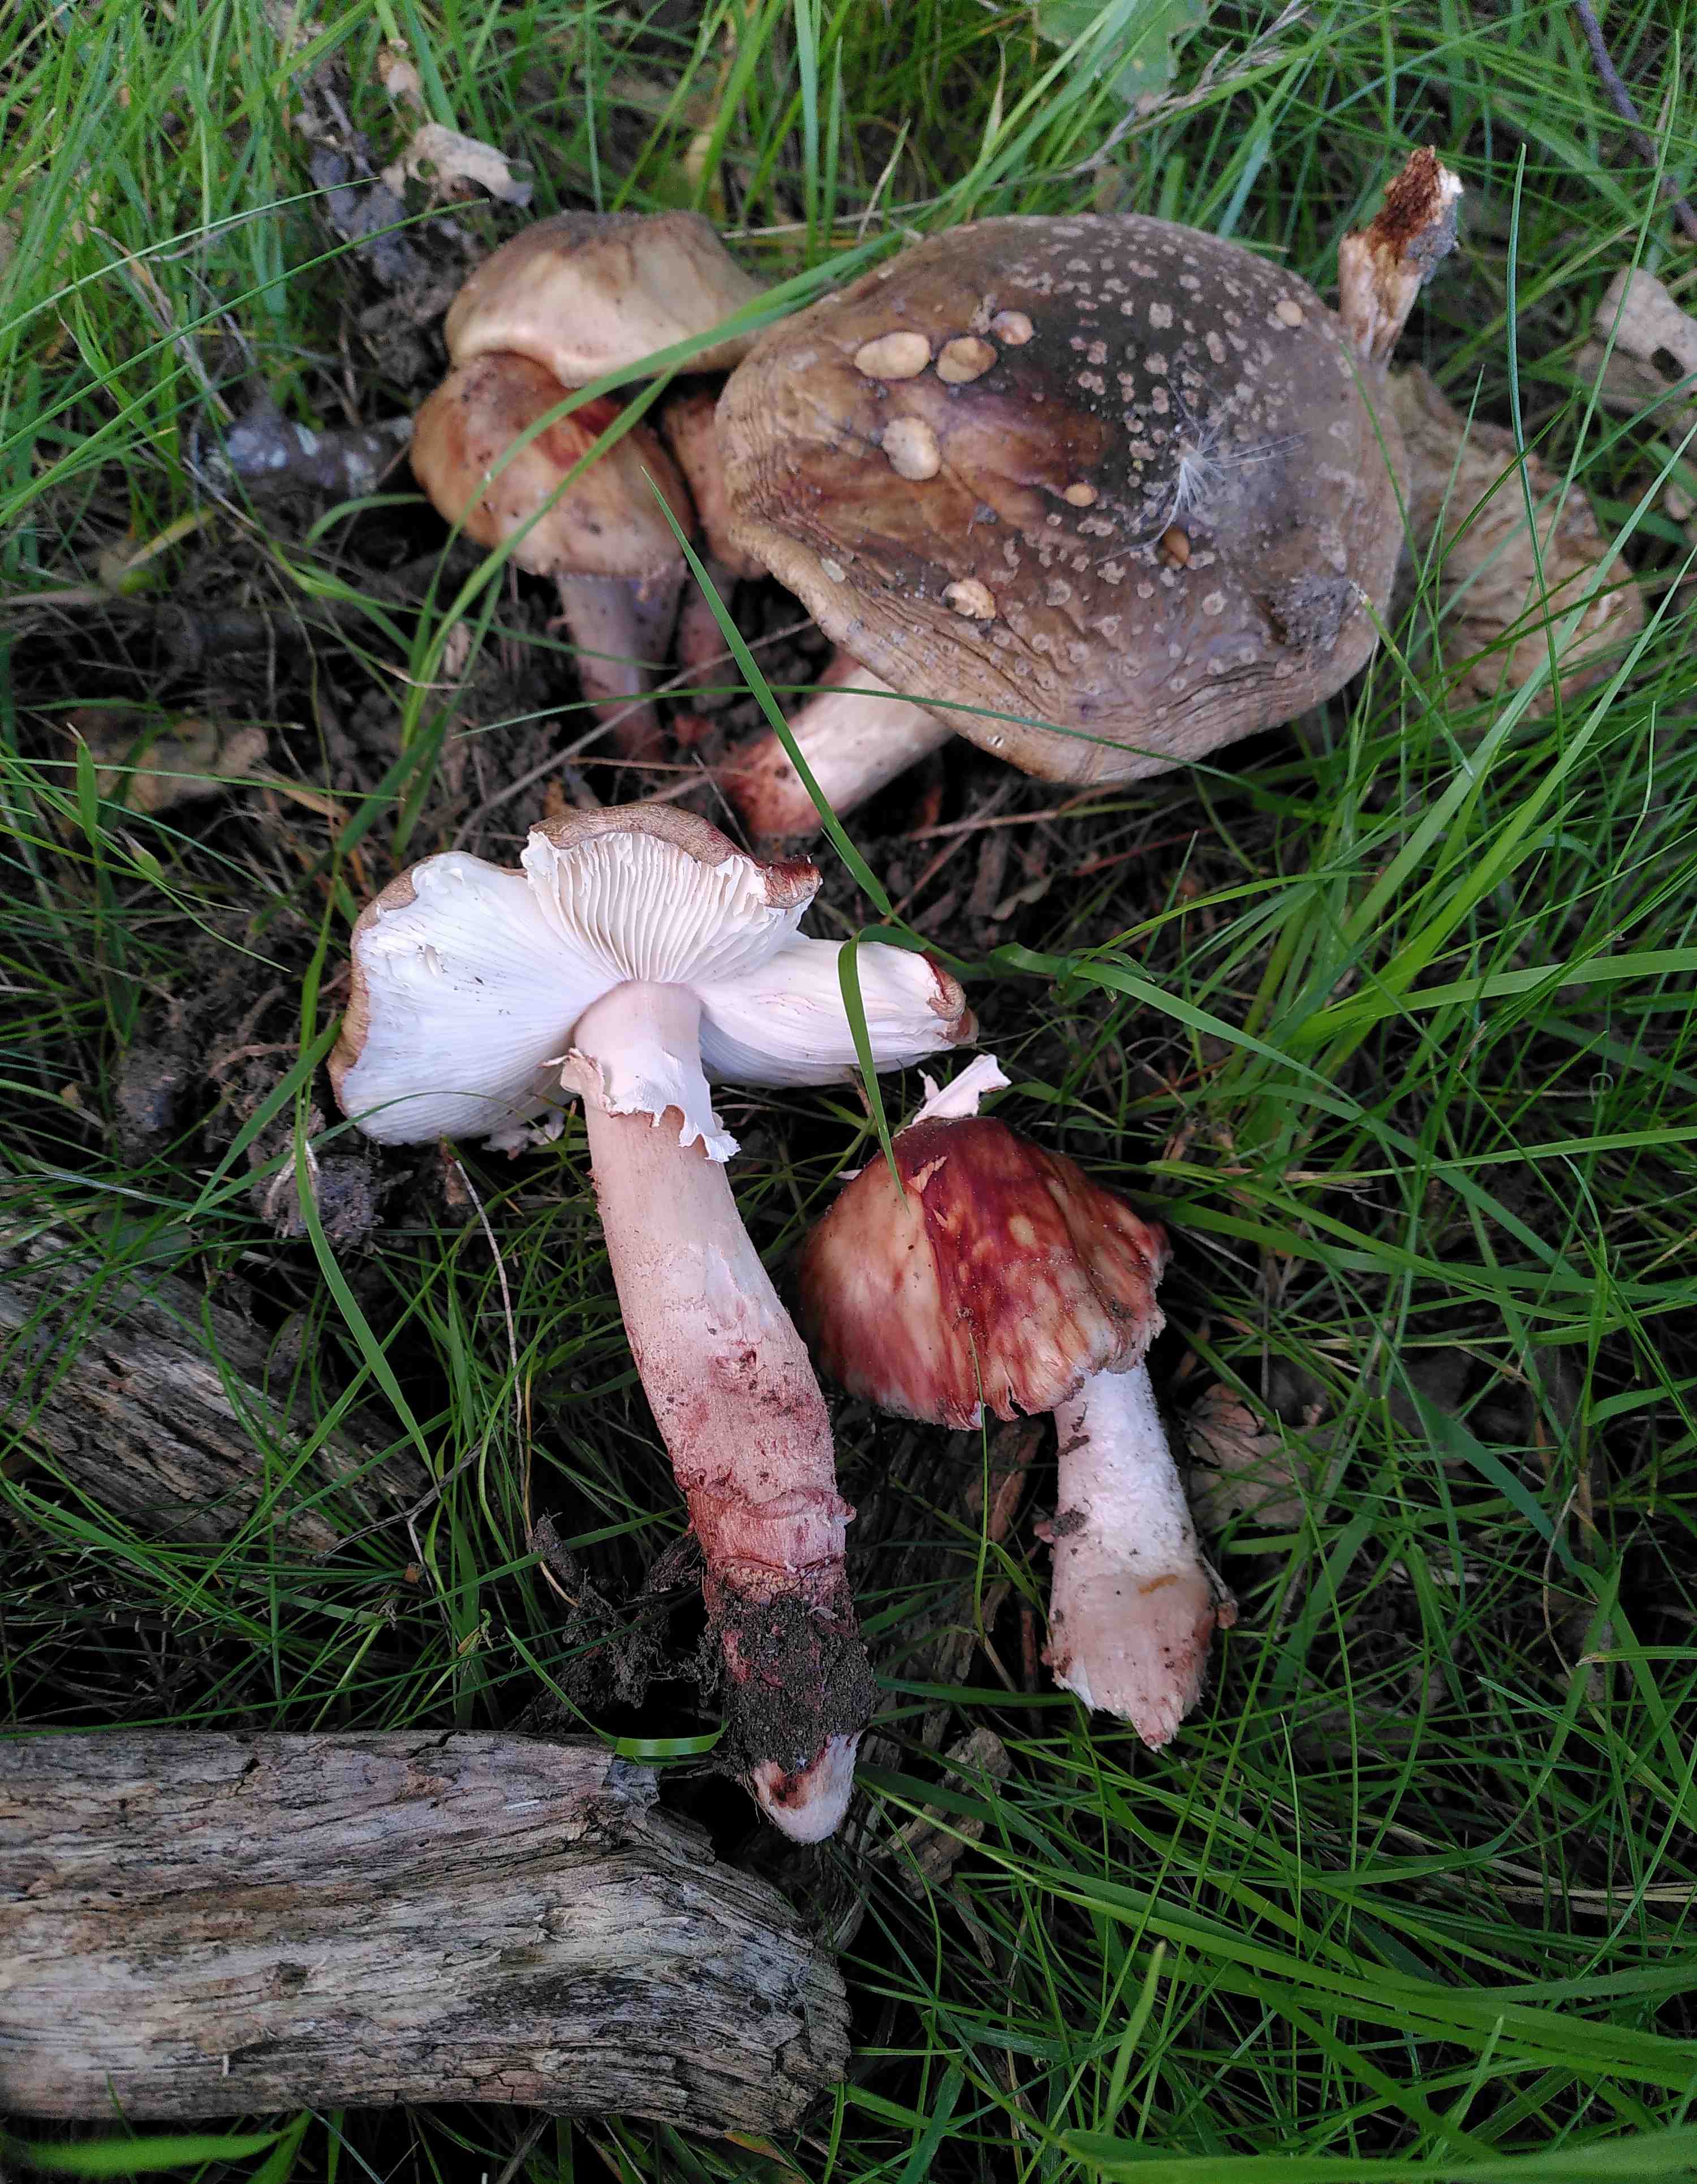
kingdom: Fungi
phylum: Basidiomycota
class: Agaricomycetes
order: Agaricales
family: Amanitaceae
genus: Amanita
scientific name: Amanita rubescens
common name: rødmende fluesvamp
